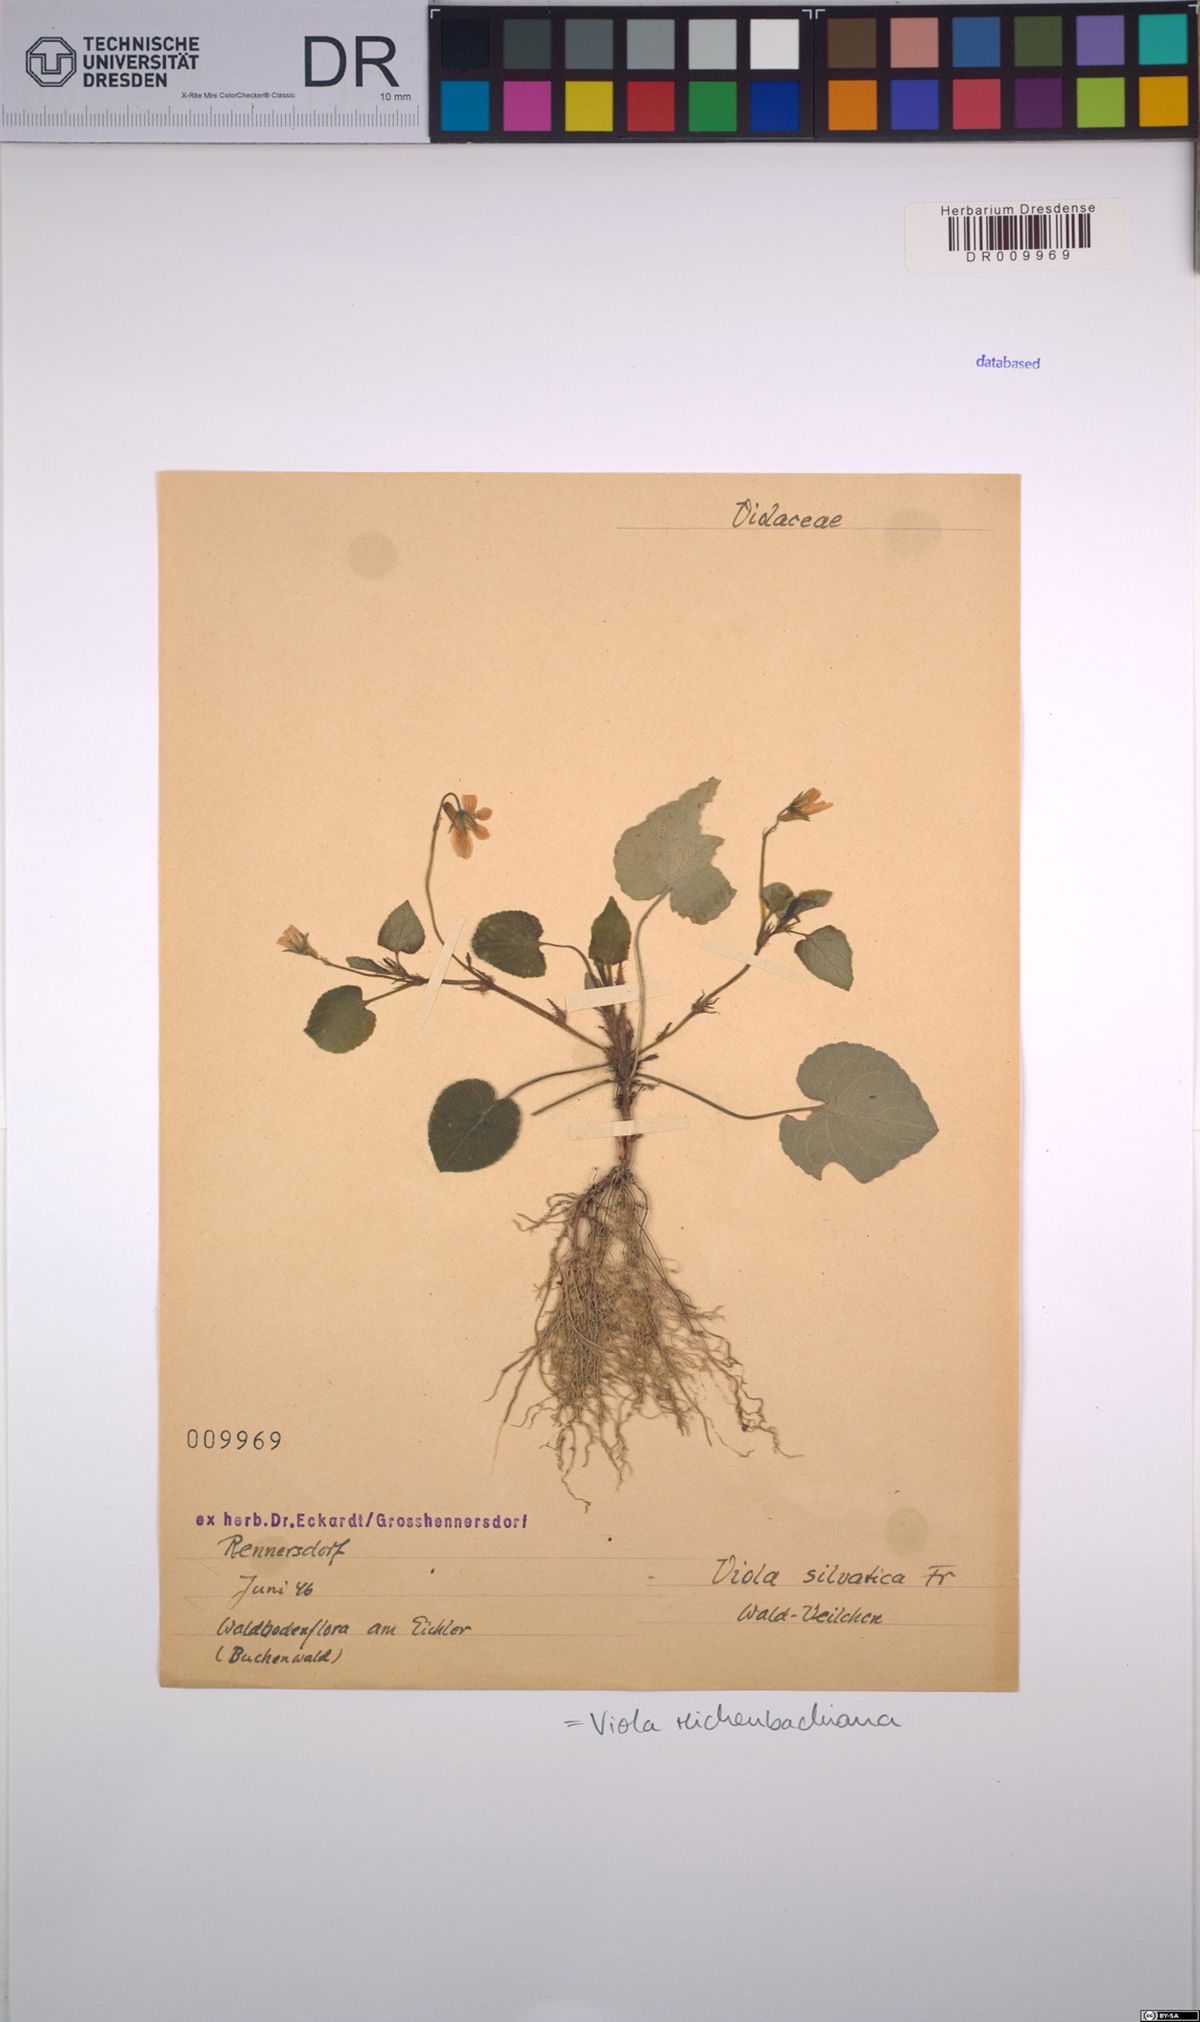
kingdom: Plantae
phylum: Tracheophyta
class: Magnoliopsida
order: Malpighiales
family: Violaceae
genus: Viola
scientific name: Viola reichenbachiana
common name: Early dog-violet
